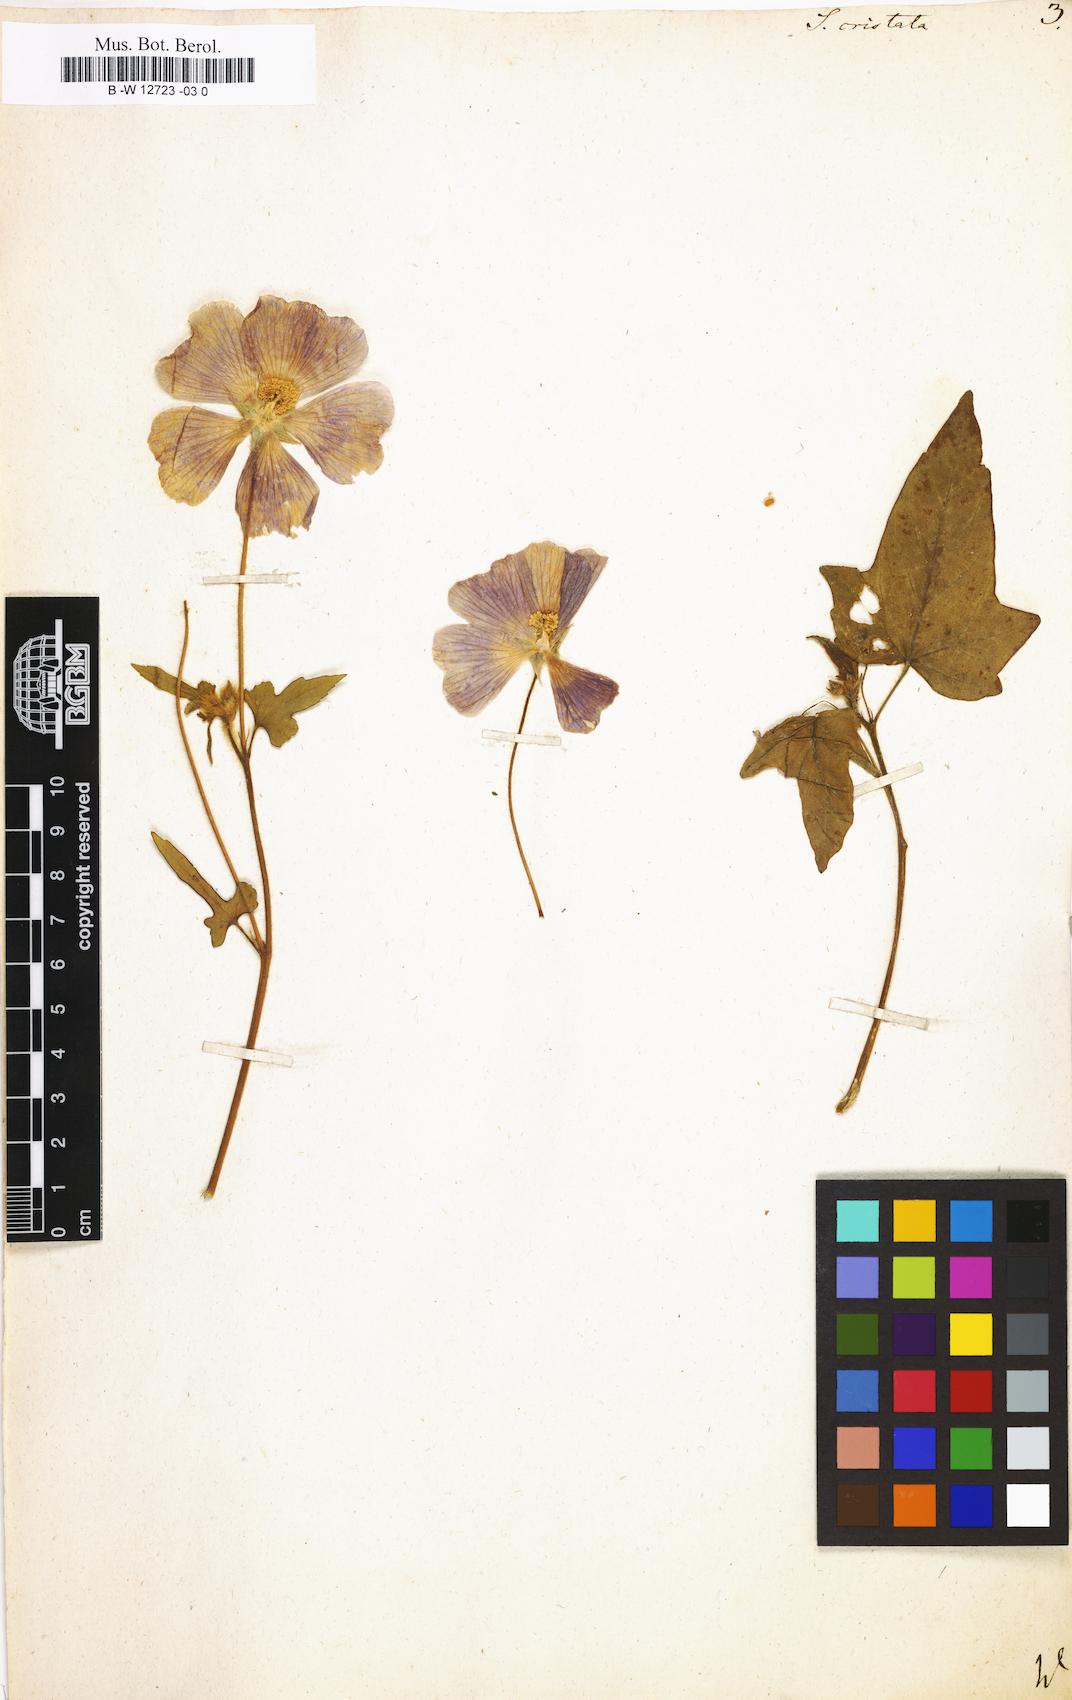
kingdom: Plantae
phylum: Tracheophyta
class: Magnoliopsida
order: Malvales
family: Malvaceae
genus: Anoda
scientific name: Anoda cristata
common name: Spurred anoda
